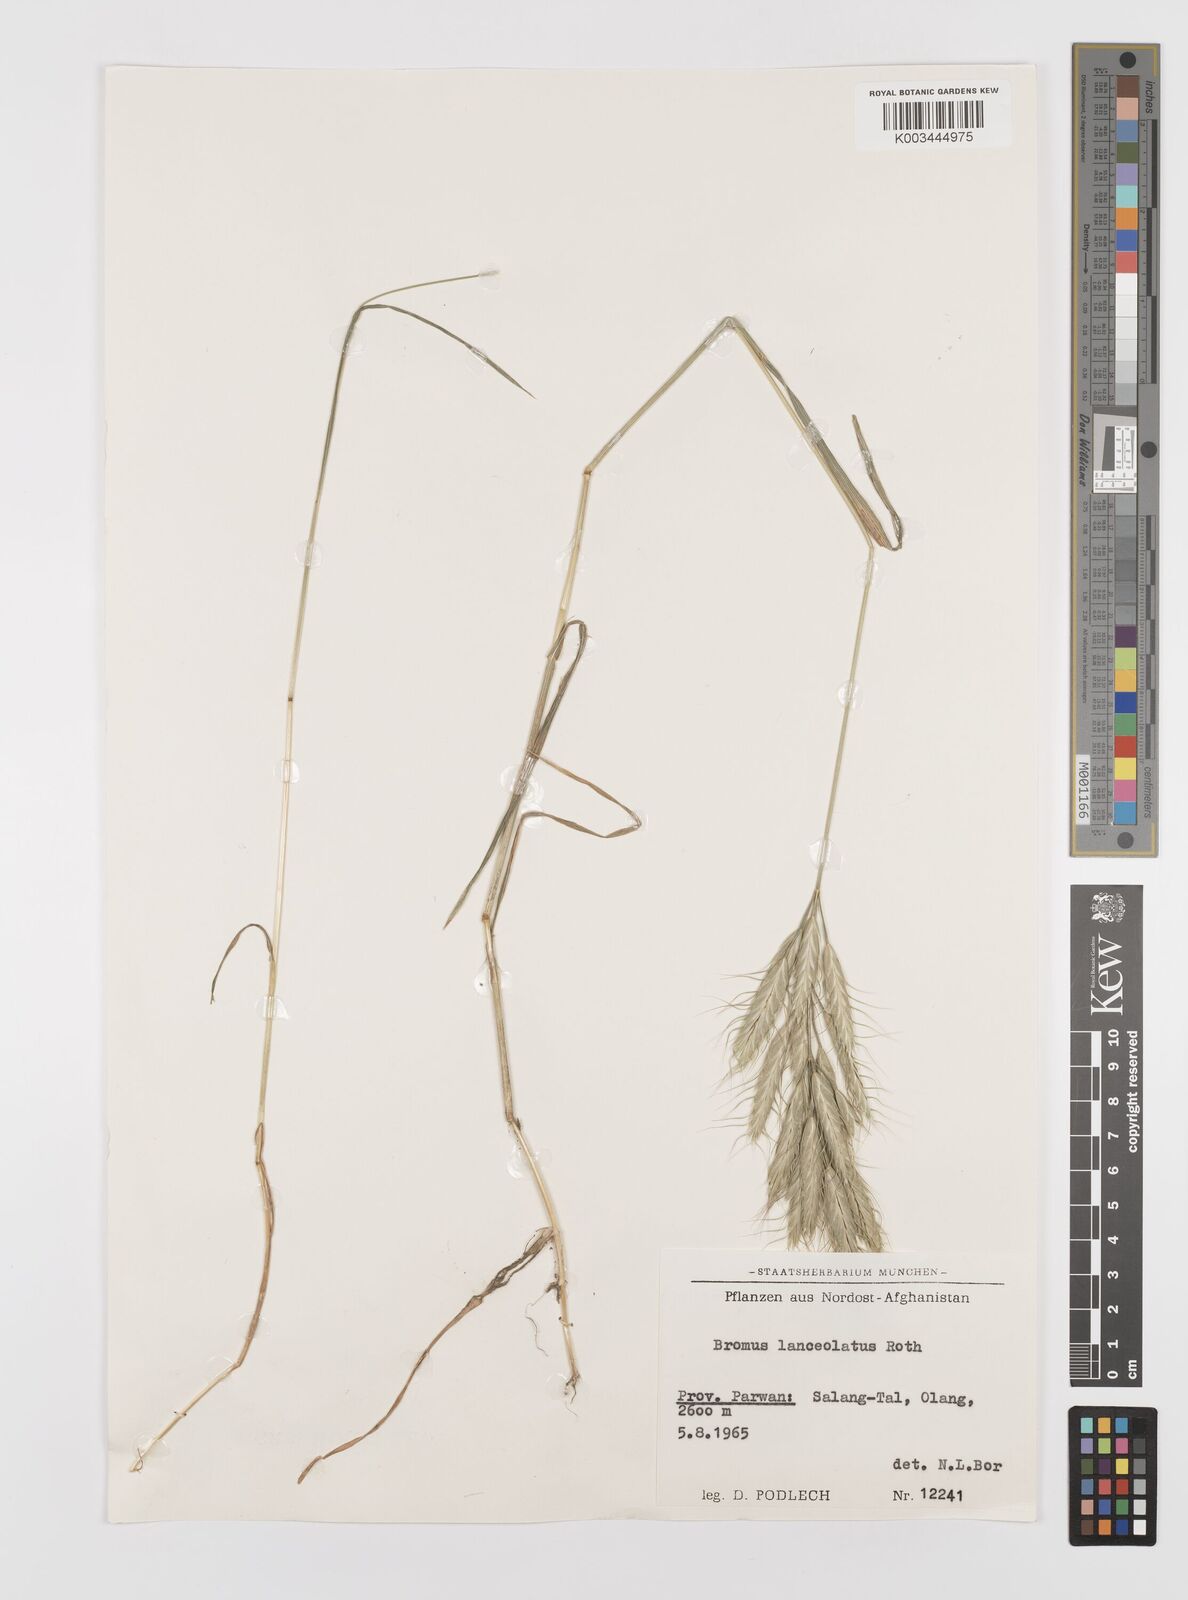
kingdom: Plantae
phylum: Tracheophyta
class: Liliopsida
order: Poales
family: Poaceae
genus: Bromus
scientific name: Bromus lanceolatus
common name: Mediterranean brome
